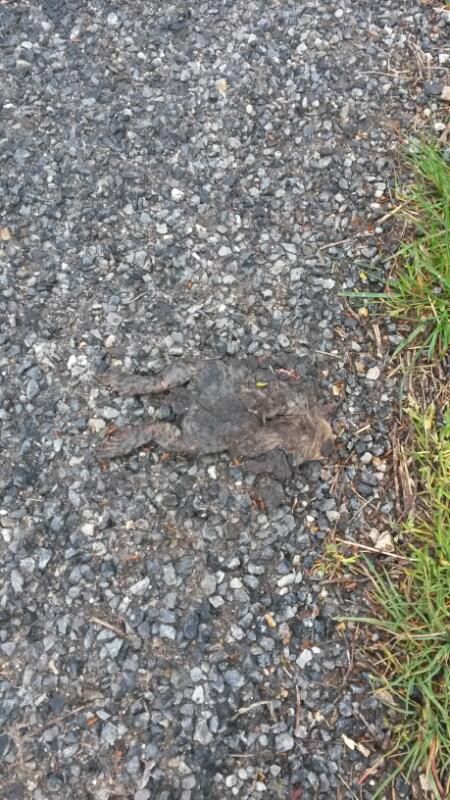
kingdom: Animalia
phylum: Chordata
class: Amphibia
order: Anura
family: Bufonidae
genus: Bufo
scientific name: Bufo bufo
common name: Common toad
